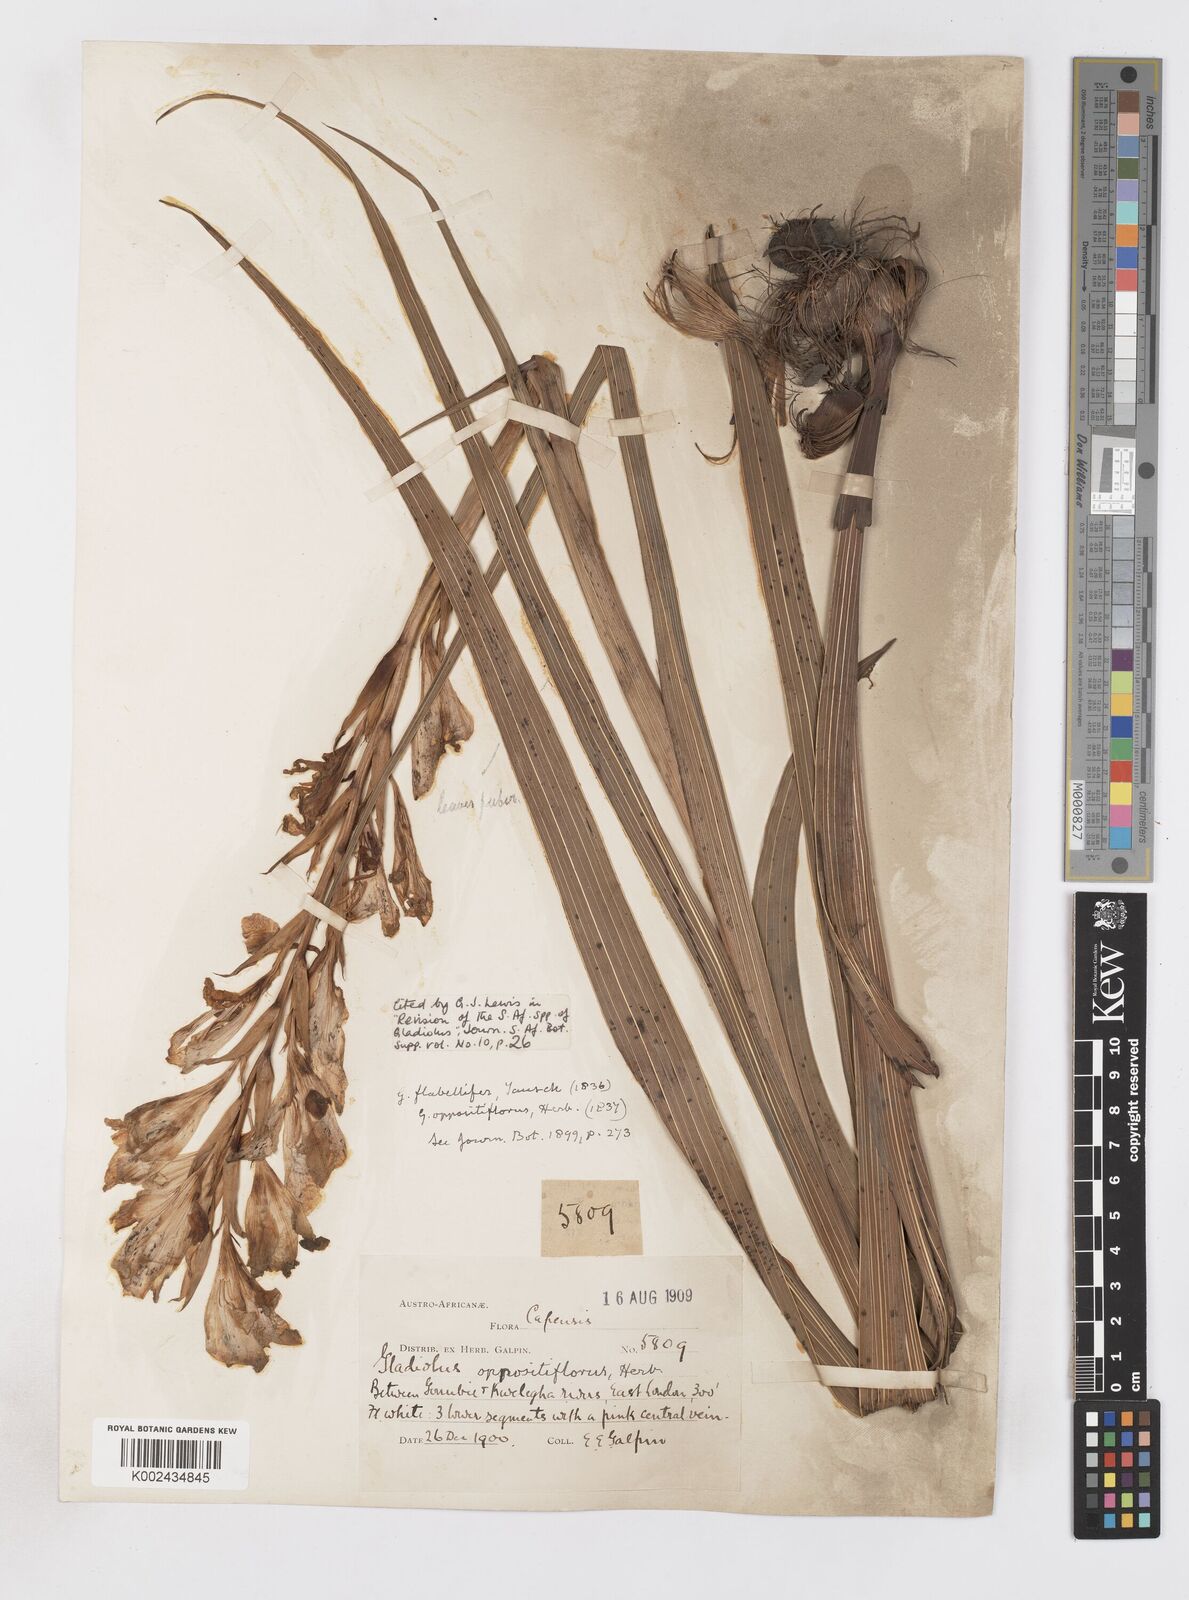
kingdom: Plantae
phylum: Tracheophyta
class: Liliopsida
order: Asparagales
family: Iridaceae
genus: Gladiolus
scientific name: Gladiolus oppositiflorus
